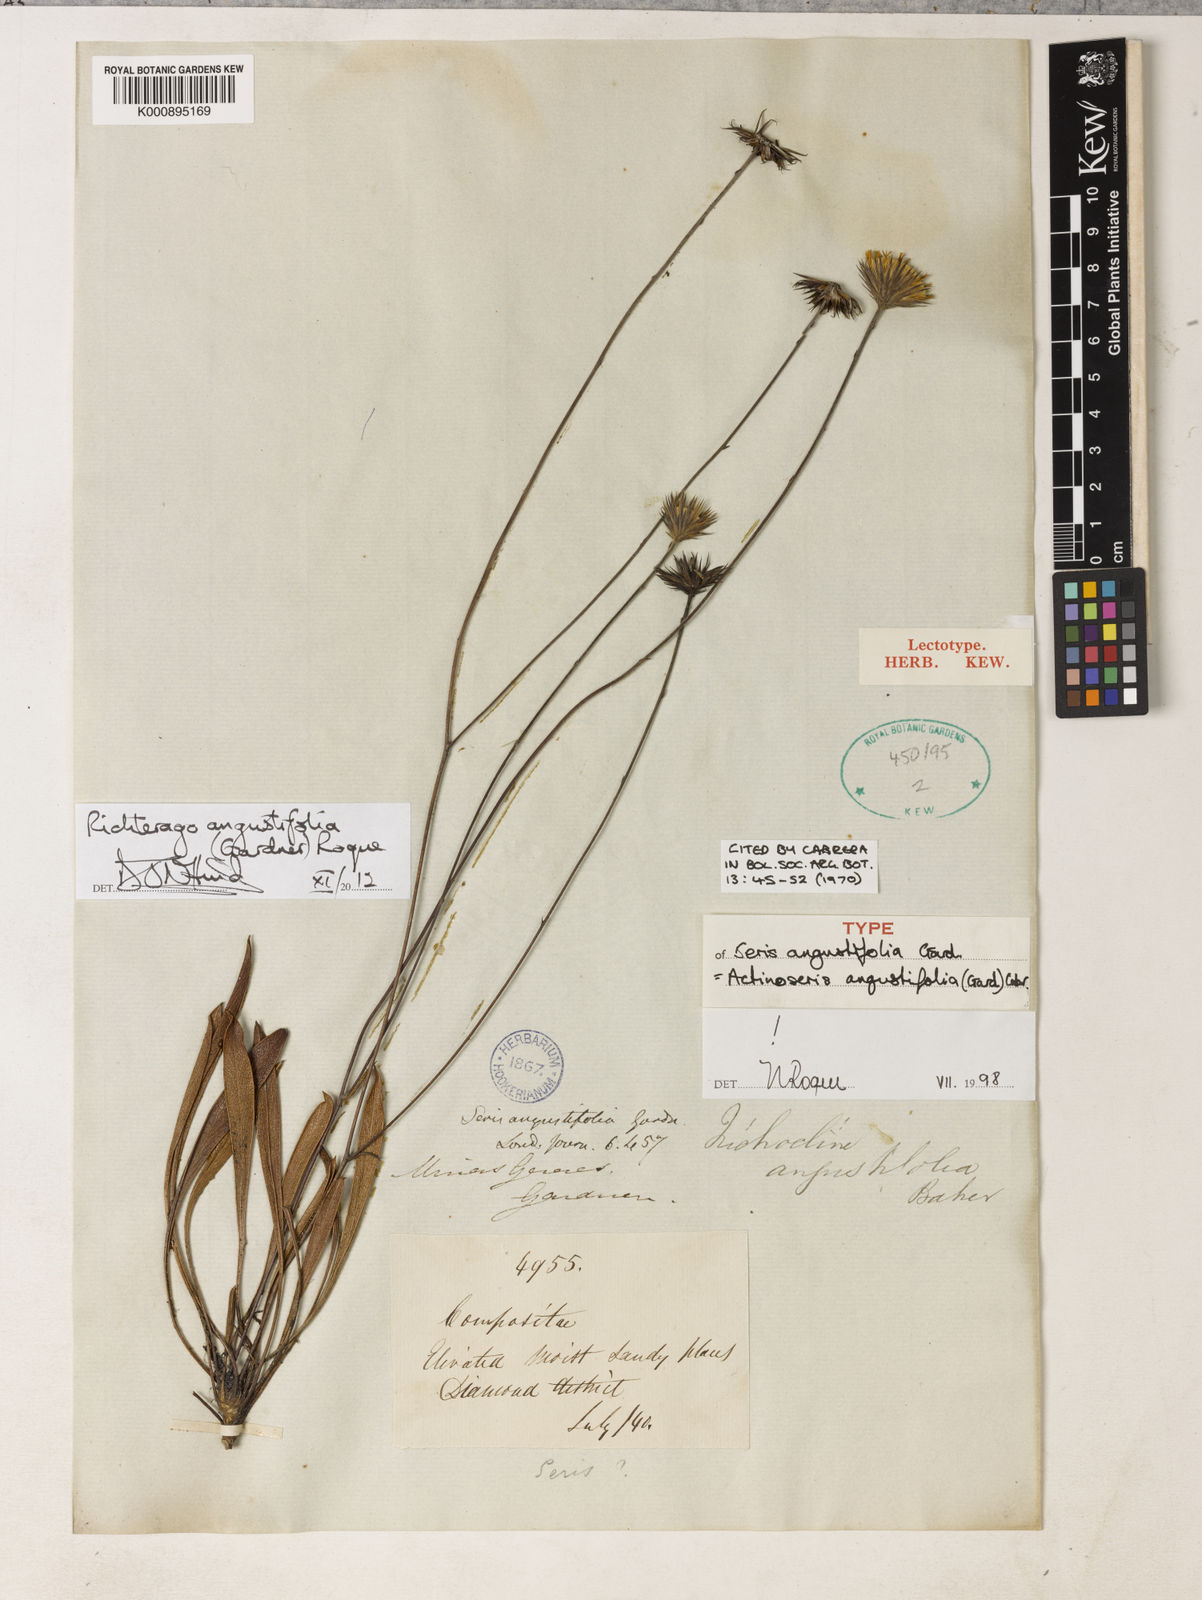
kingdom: Plantae
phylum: Tracheophyta
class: Magnoliopsida
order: Asterales
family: Asteraceae
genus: Richterago
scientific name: Richterago angustifolia
